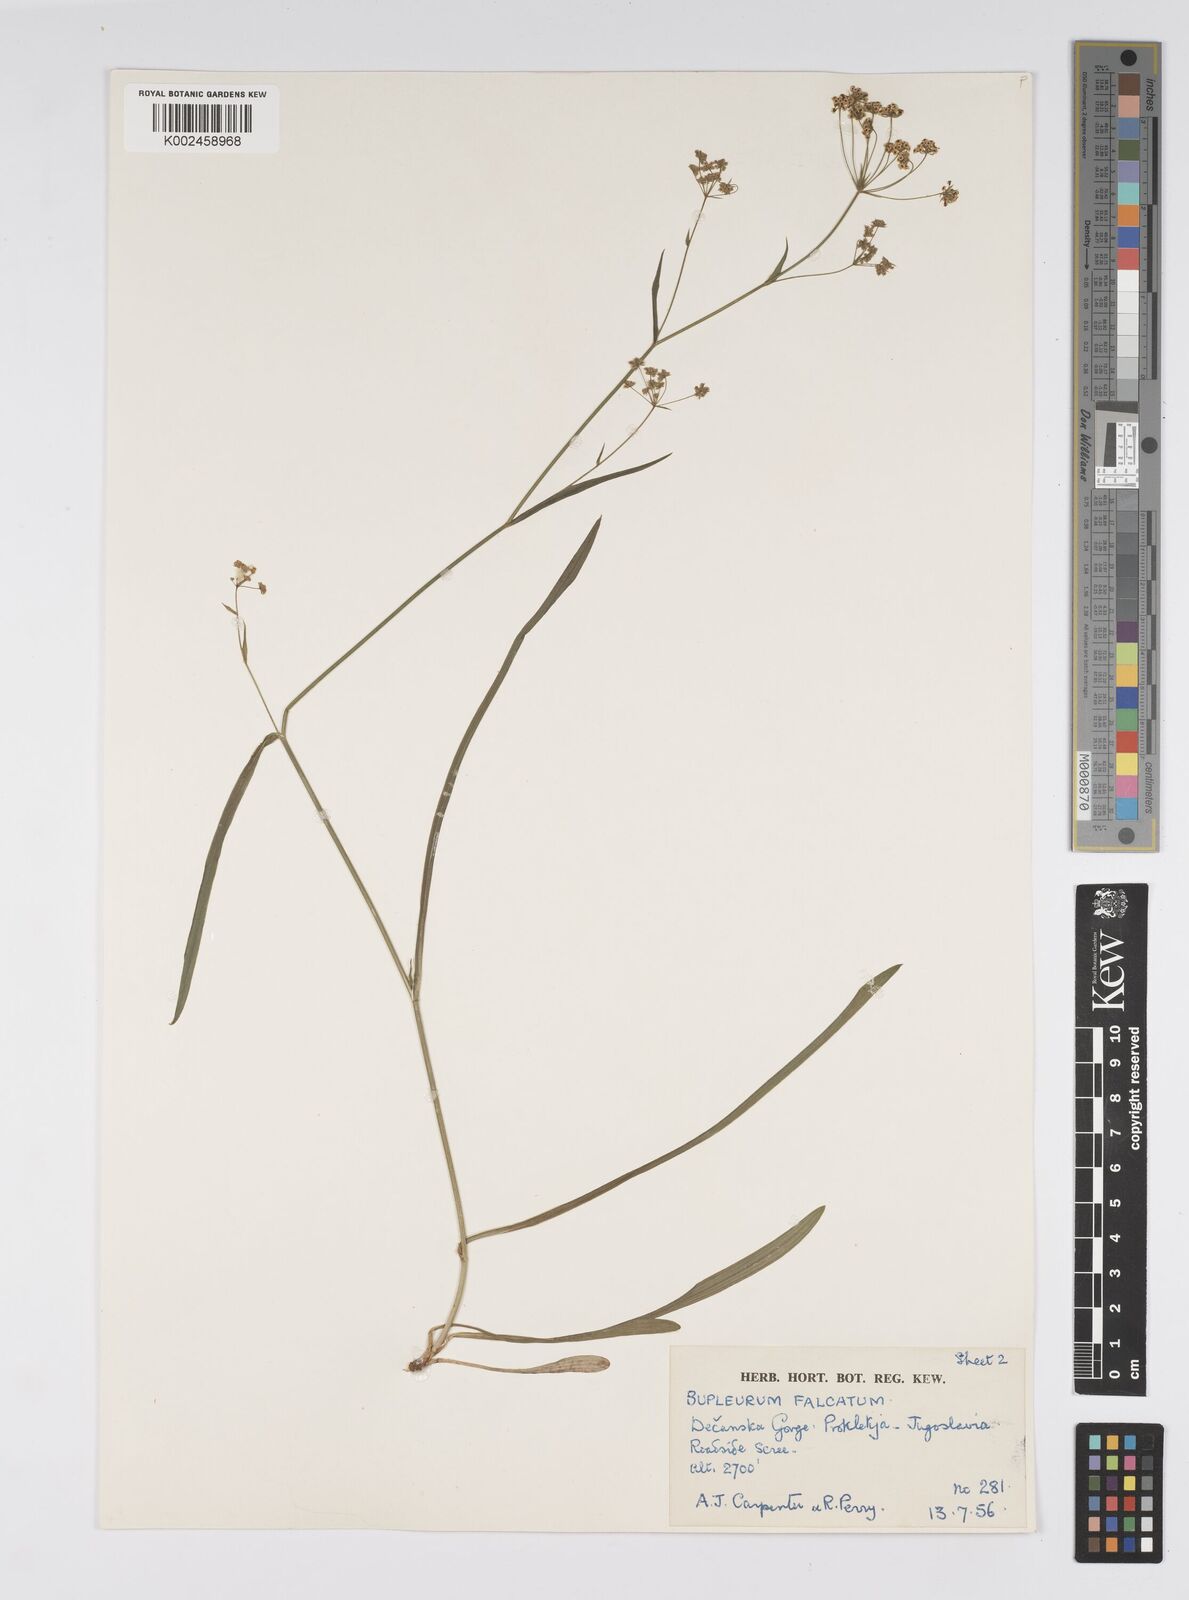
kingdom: Plantae
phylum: Tracheophyta
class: Magnoliopsida
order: Apiales
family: Apiaceae
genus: Bupleurum
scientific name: Bupleurum falcatum
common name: Sickle-leaved hare's-ear
